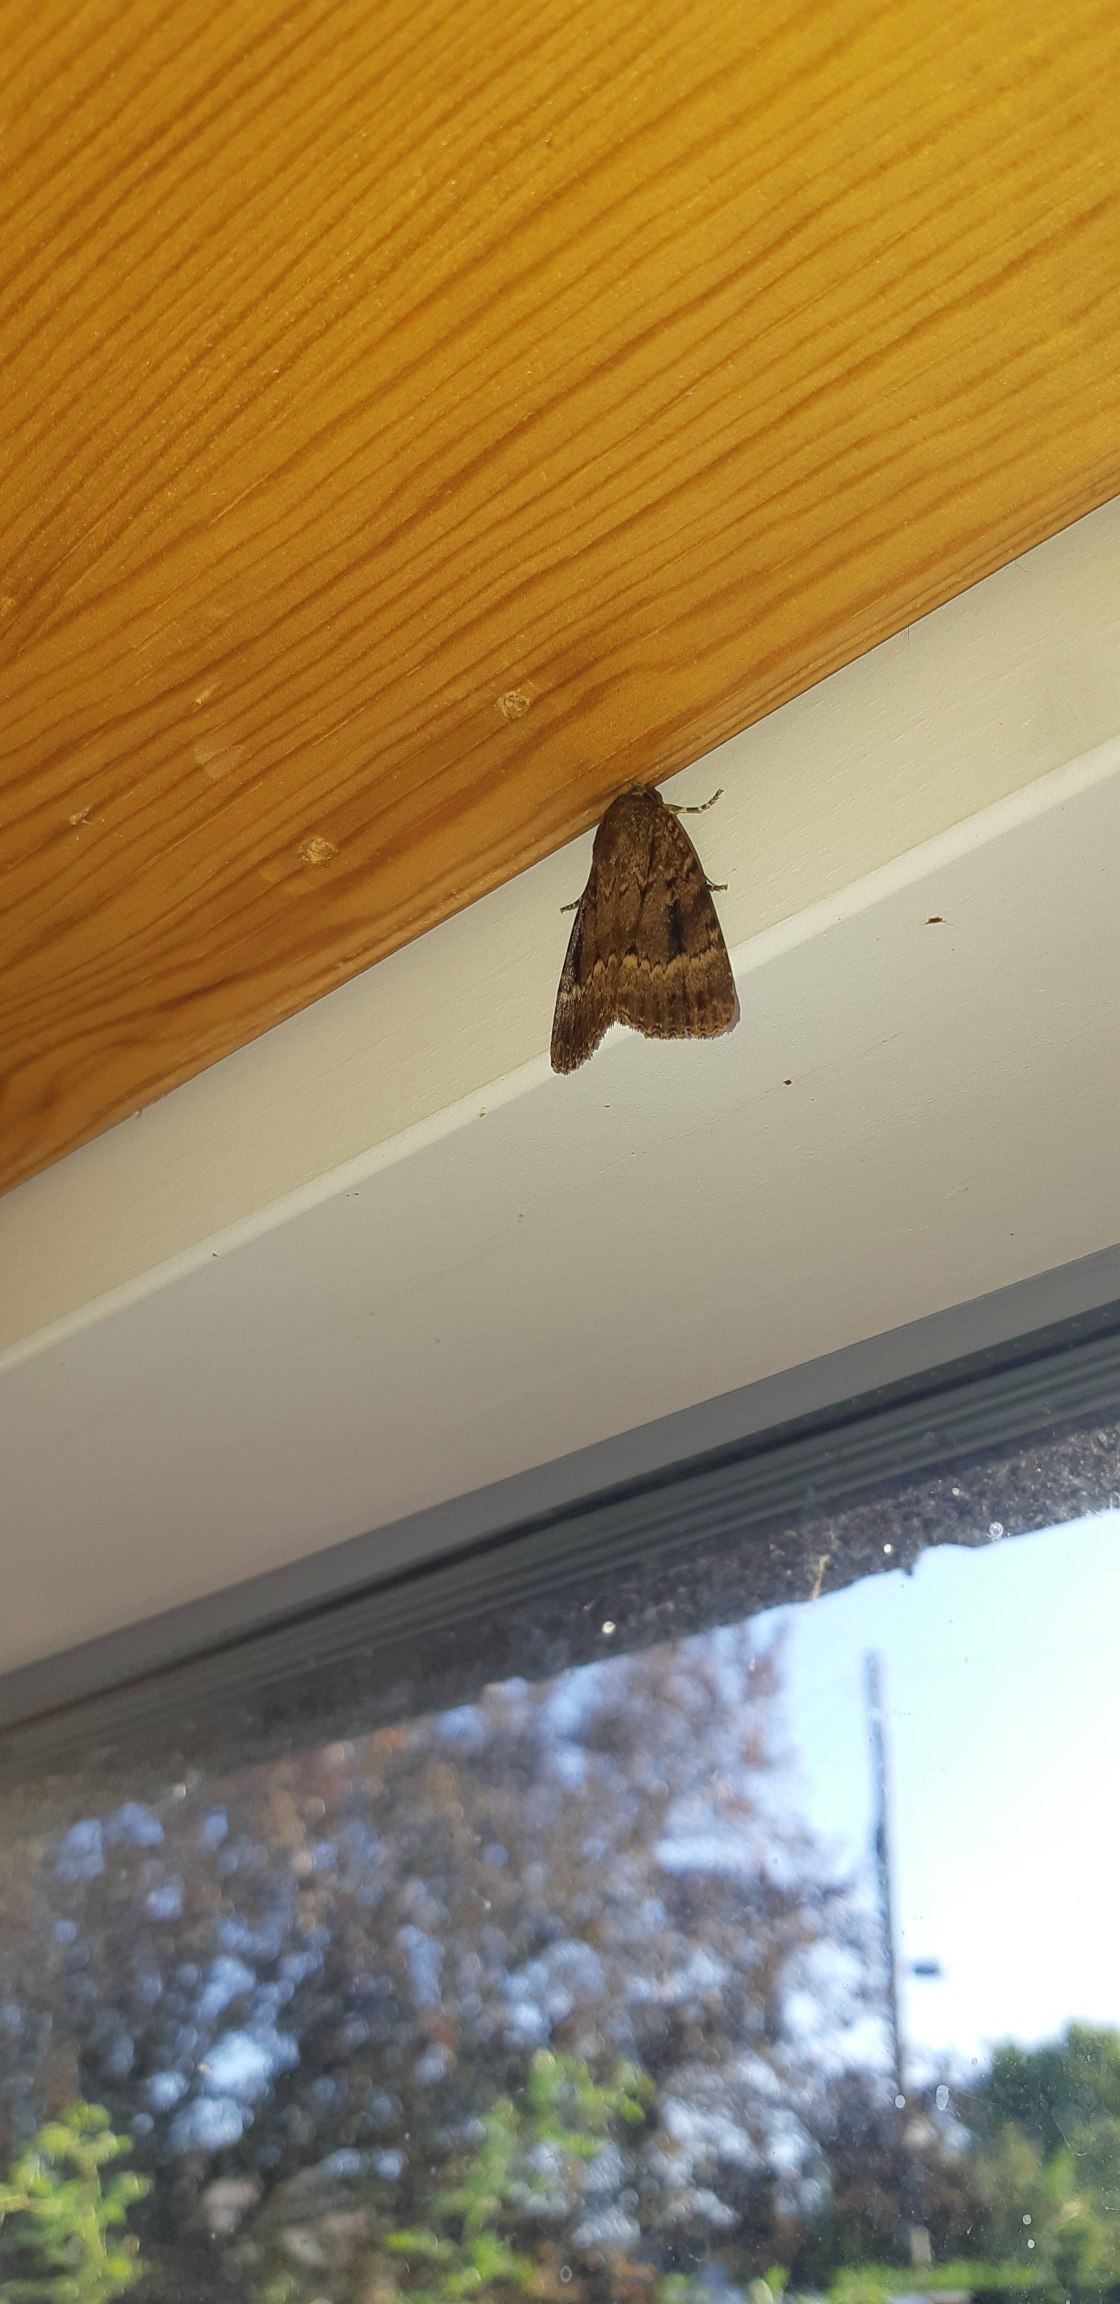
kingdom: Animalia
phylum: Arthropoda
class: Insecta
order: Lepidoptera
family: Noctuidae
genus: Amphipyra
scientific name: Amphipyra pyramidea
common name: Pyramideugle
